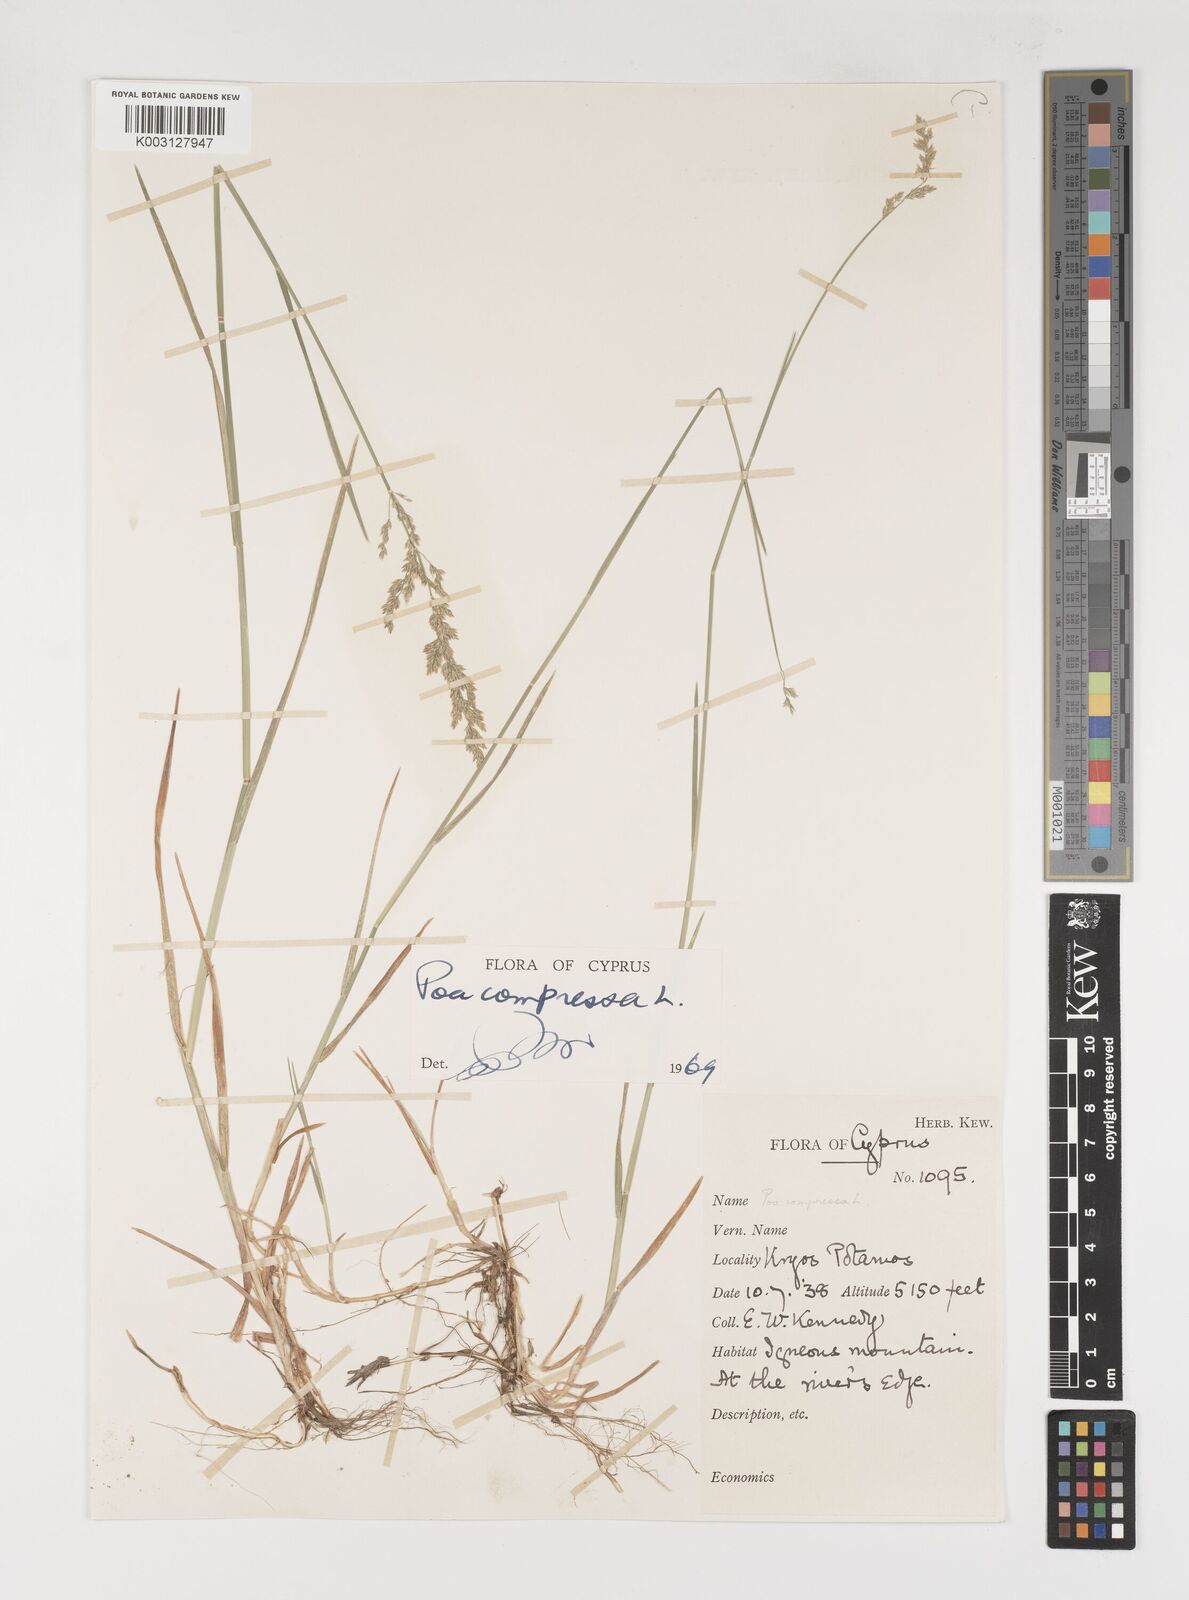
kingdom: Plantae
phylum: Tracheophyta
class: Liliopsida
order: Poales
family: Poaceae
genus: Poa
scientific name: Poa compressa
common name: Canada bluegrass
